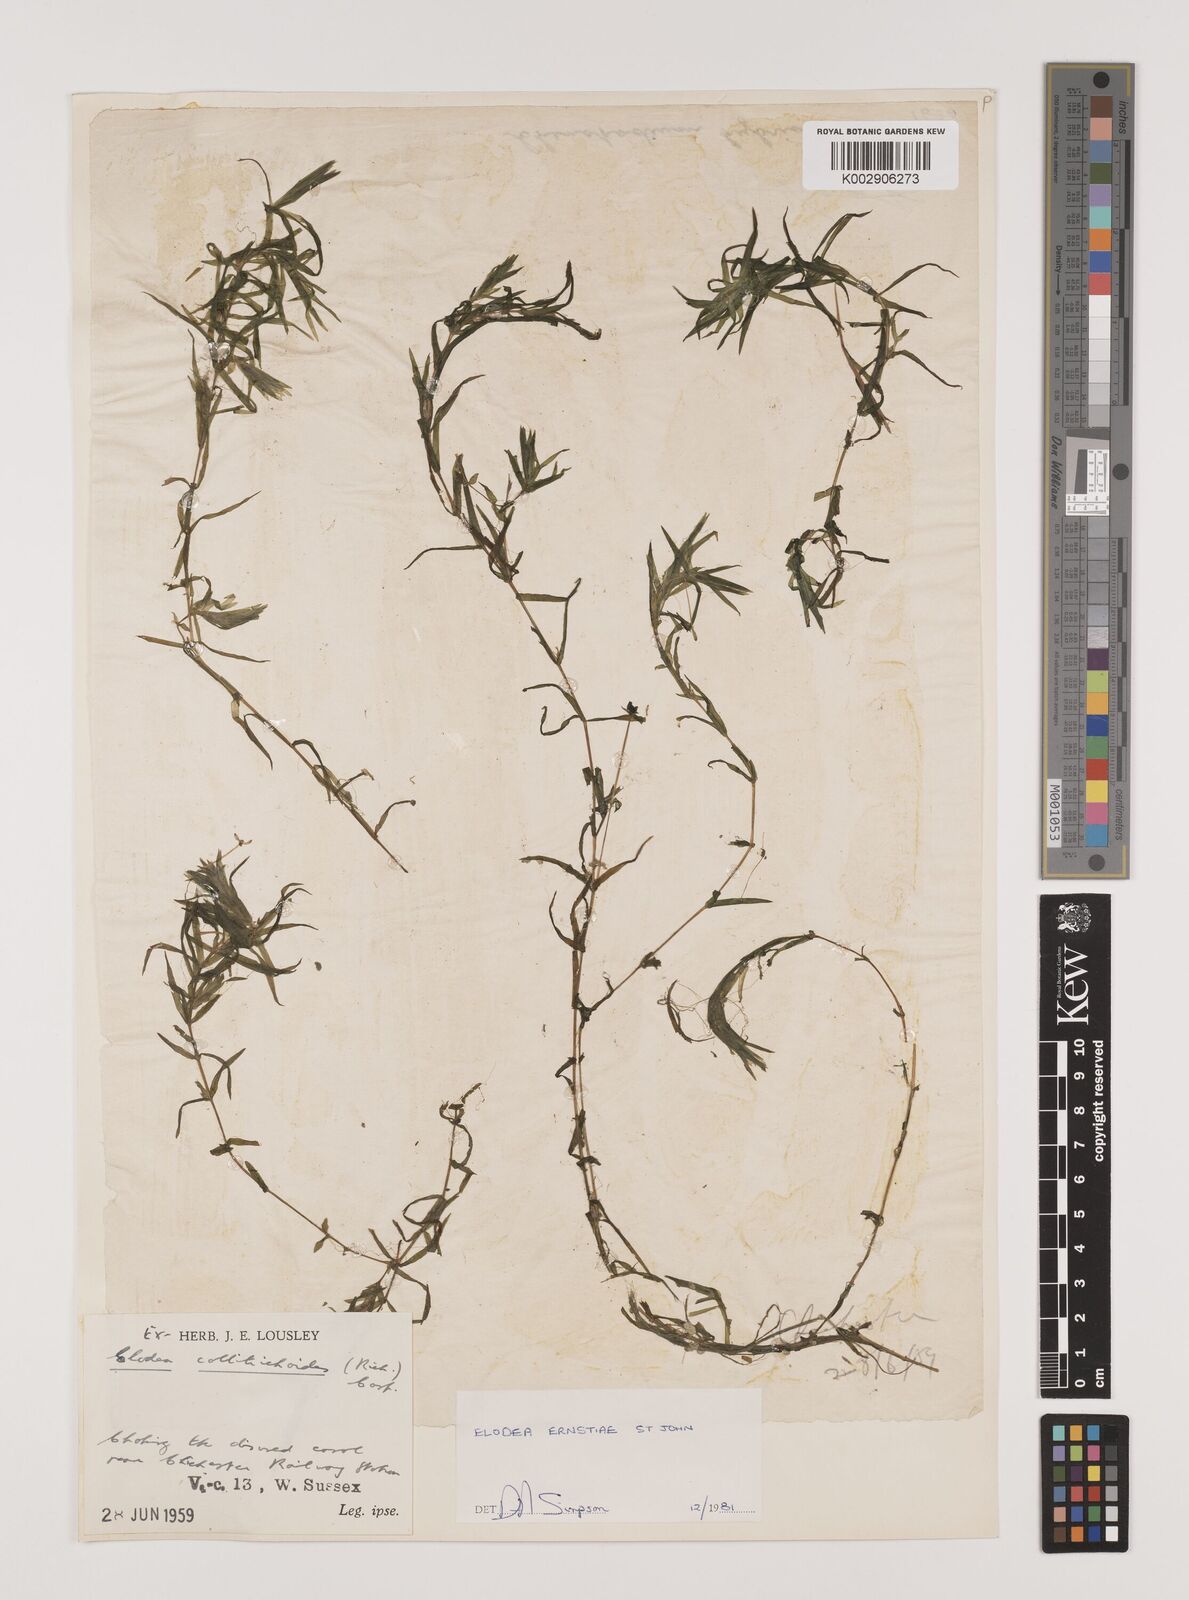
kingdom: Plantae
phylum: Tracheophyta
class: Liliopsida
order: Alismatales
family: Hydrocharitaceae
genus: Elodea
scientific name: Elodea callitrichoides
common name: South american waterweed
